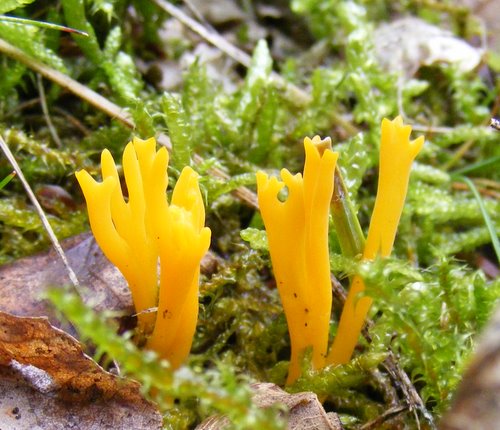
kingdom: Fungi
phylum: Basidiomycota
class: Dacrymycetes
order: Dacrymycetales
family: Dacrymycetaceae
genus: Calocera
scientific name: Calocera viscosa
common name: almindelig guldgaffel
